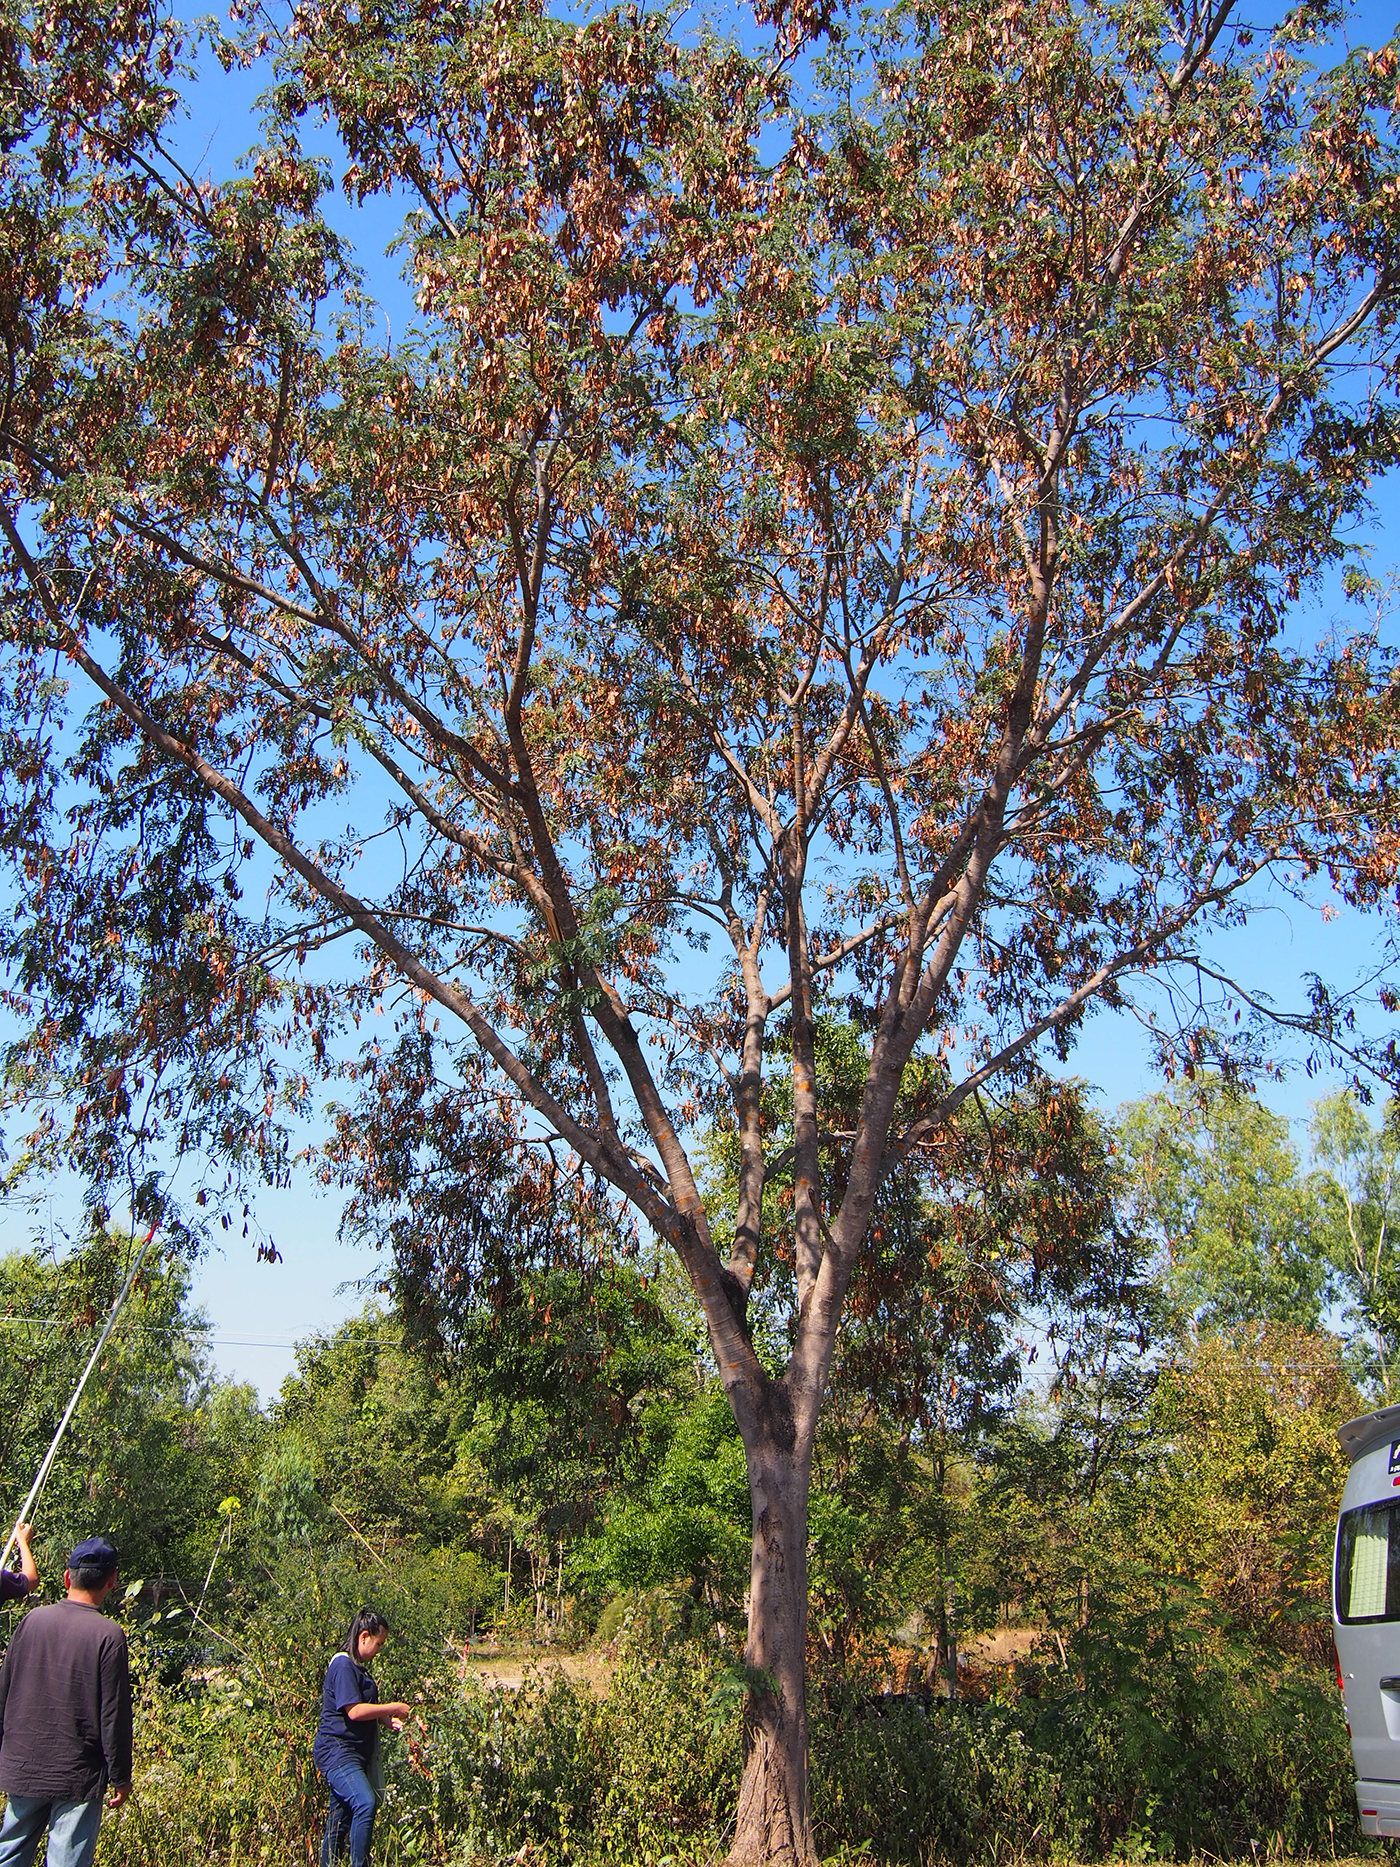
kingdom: Plantae
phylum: Tracheophyta
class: Magnoliopsida
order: Fabales
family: Fabaceae
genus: Albizia
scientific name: Albizia odoratissima
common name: Ceylon rosewood
